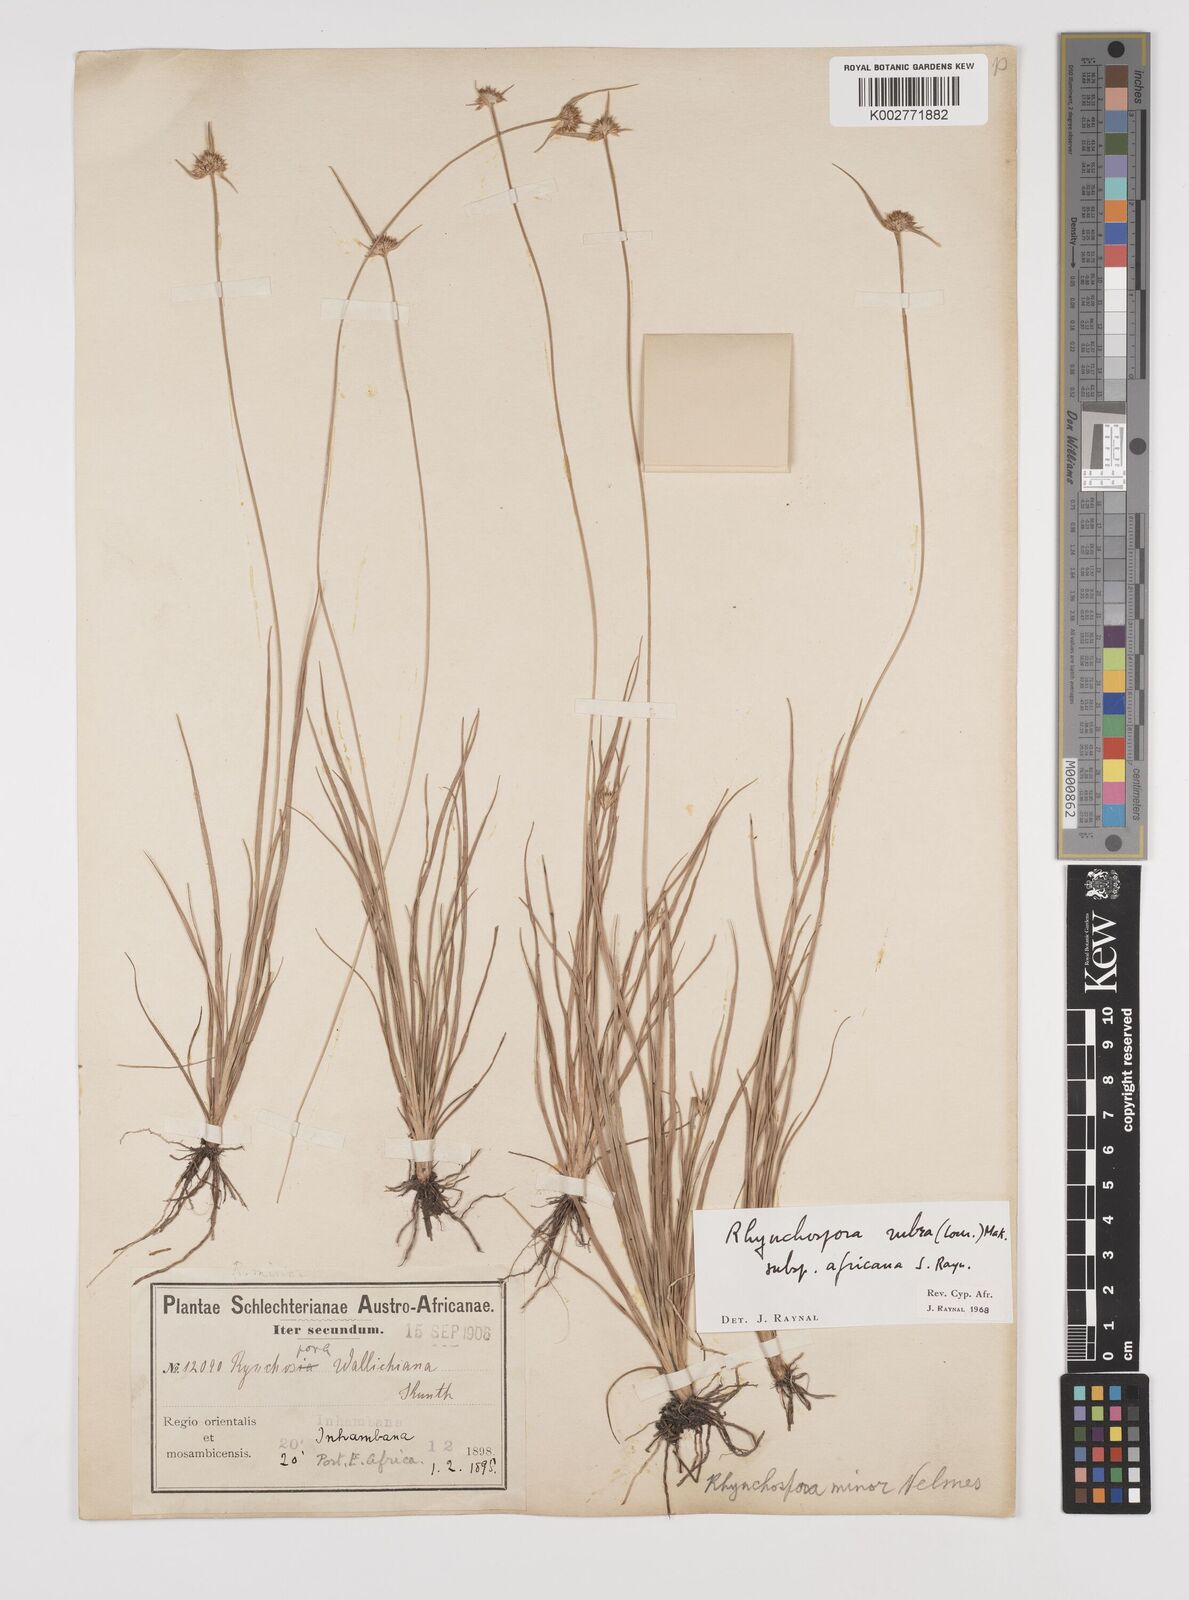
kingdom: Plantae
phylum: Tracheophyta
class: Liliopsida
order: Poales
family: Cyperaceae
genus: Rhynchospora
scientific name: Rhynchospora rubra
